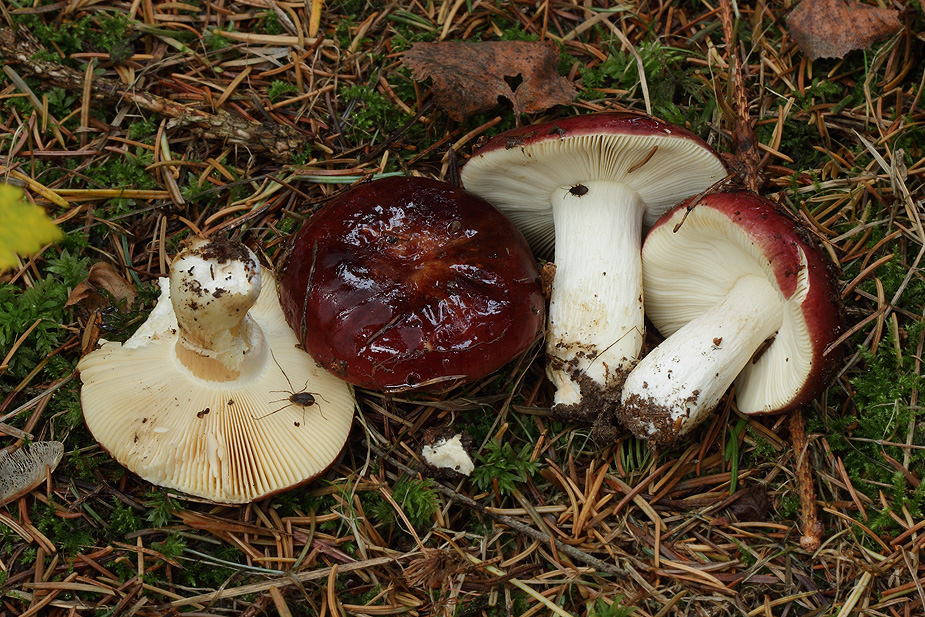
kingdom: Fungi
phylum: Basidiomycota
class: Agaricomycetes
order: Russulales
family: Russulaceae
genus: Russula
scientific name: Russula xerampelina
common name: hummer-skørhat
